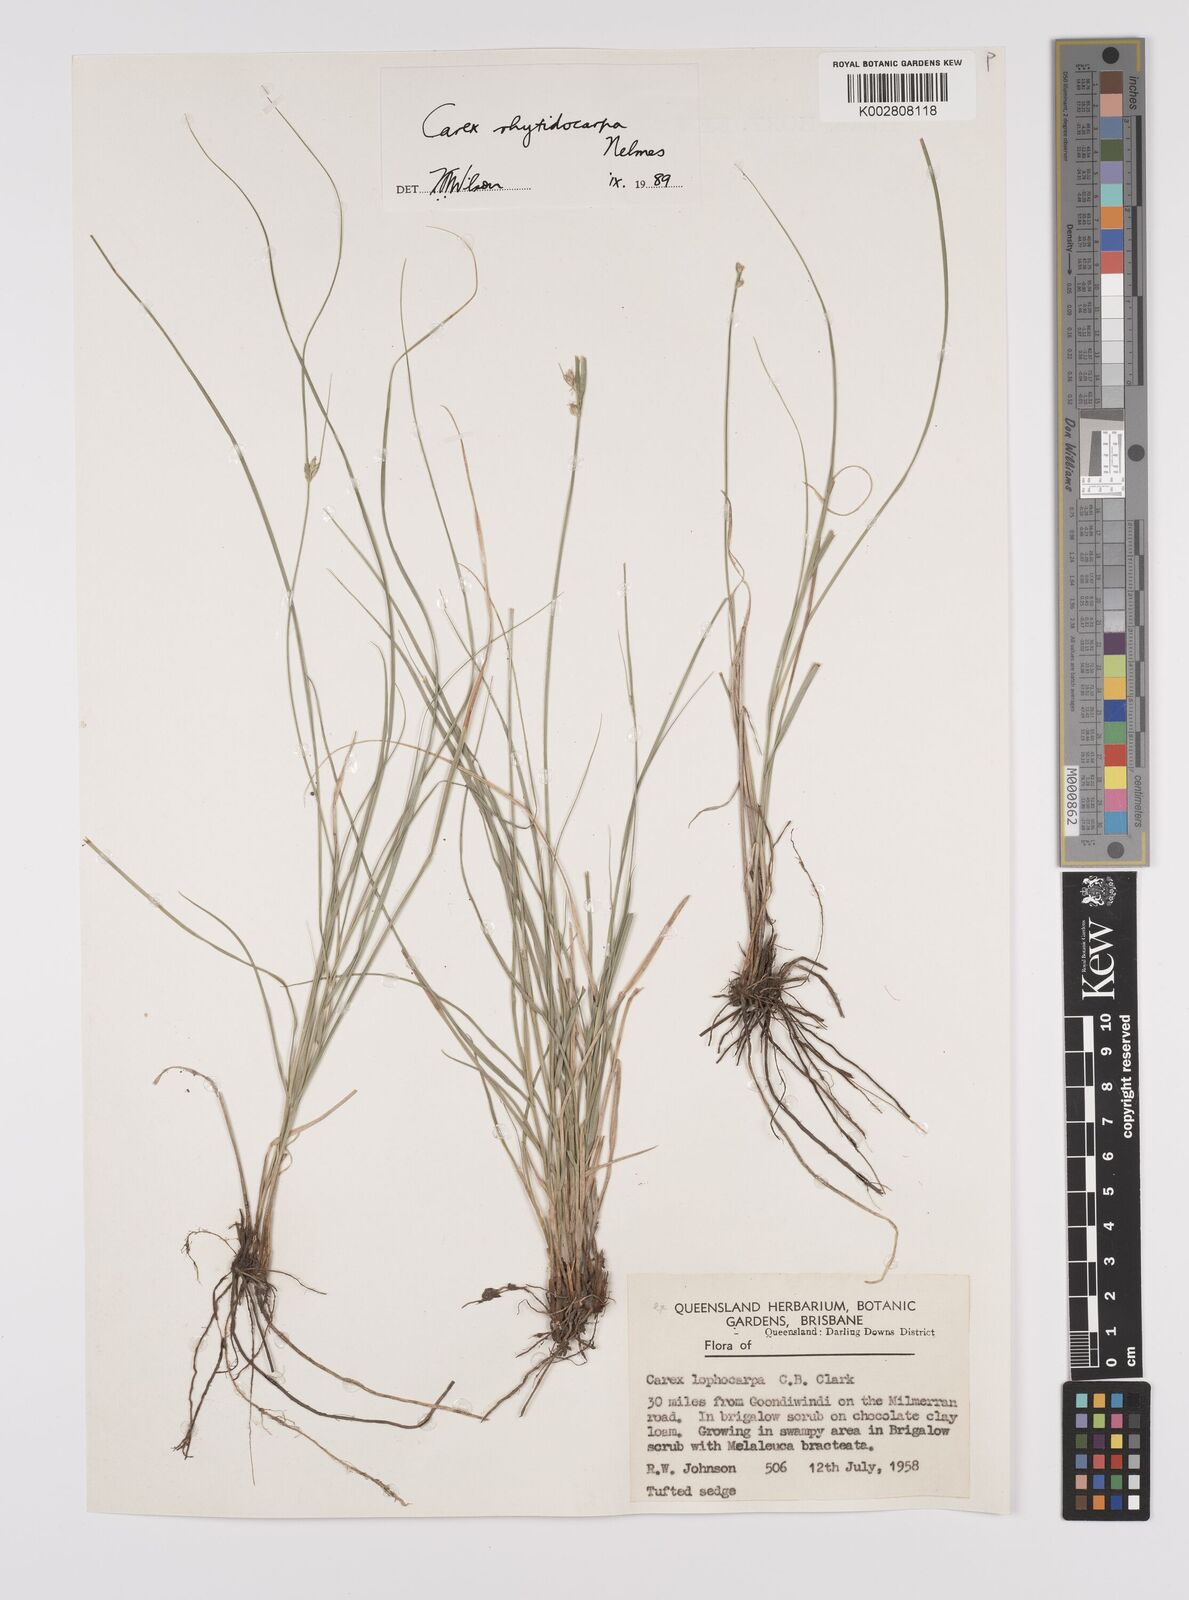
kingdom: Plantae
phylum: Tracheophyta
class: Liliopsida
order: Poales
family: Cyperaceae
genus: Carex
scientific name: Carex inversa
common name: Knob sedge
